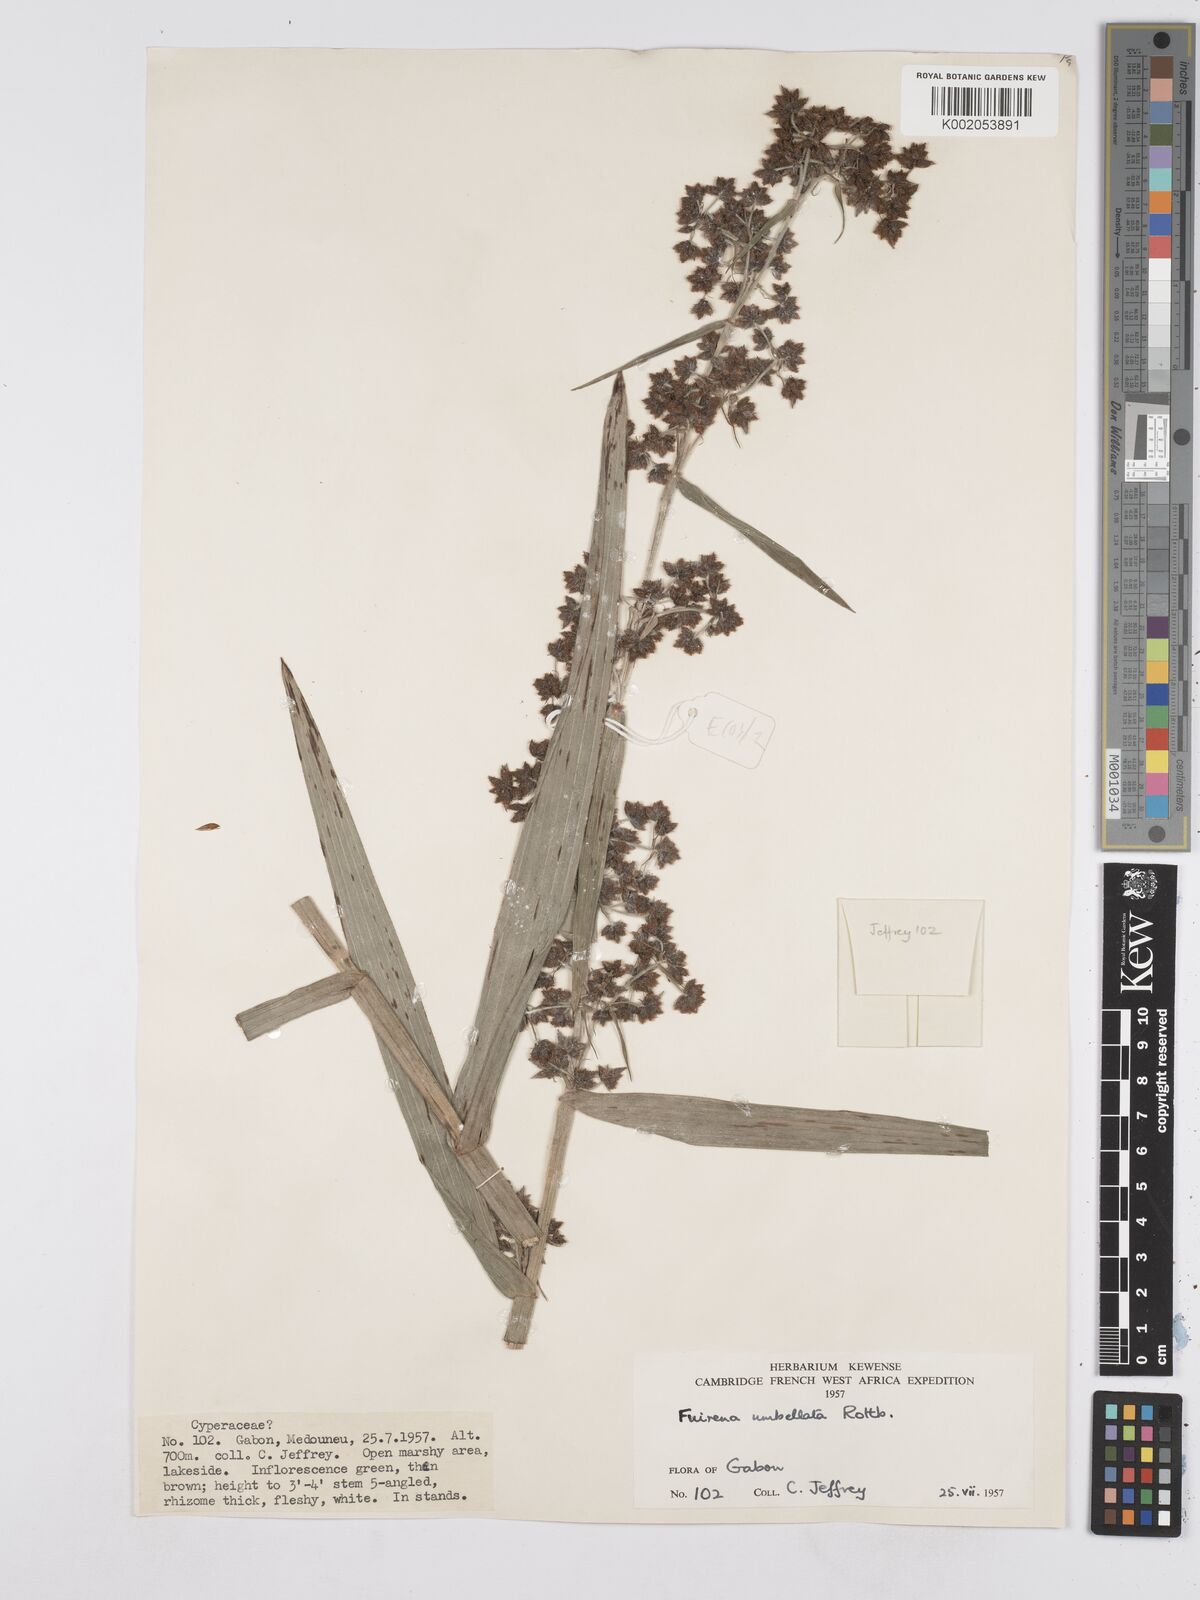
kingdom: Plantae
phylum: Tracheophyta
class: Liliopsida
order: Poales
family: Cyperaceae
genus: Fuirena
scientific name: Fuirena umbellata
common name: Yefen
